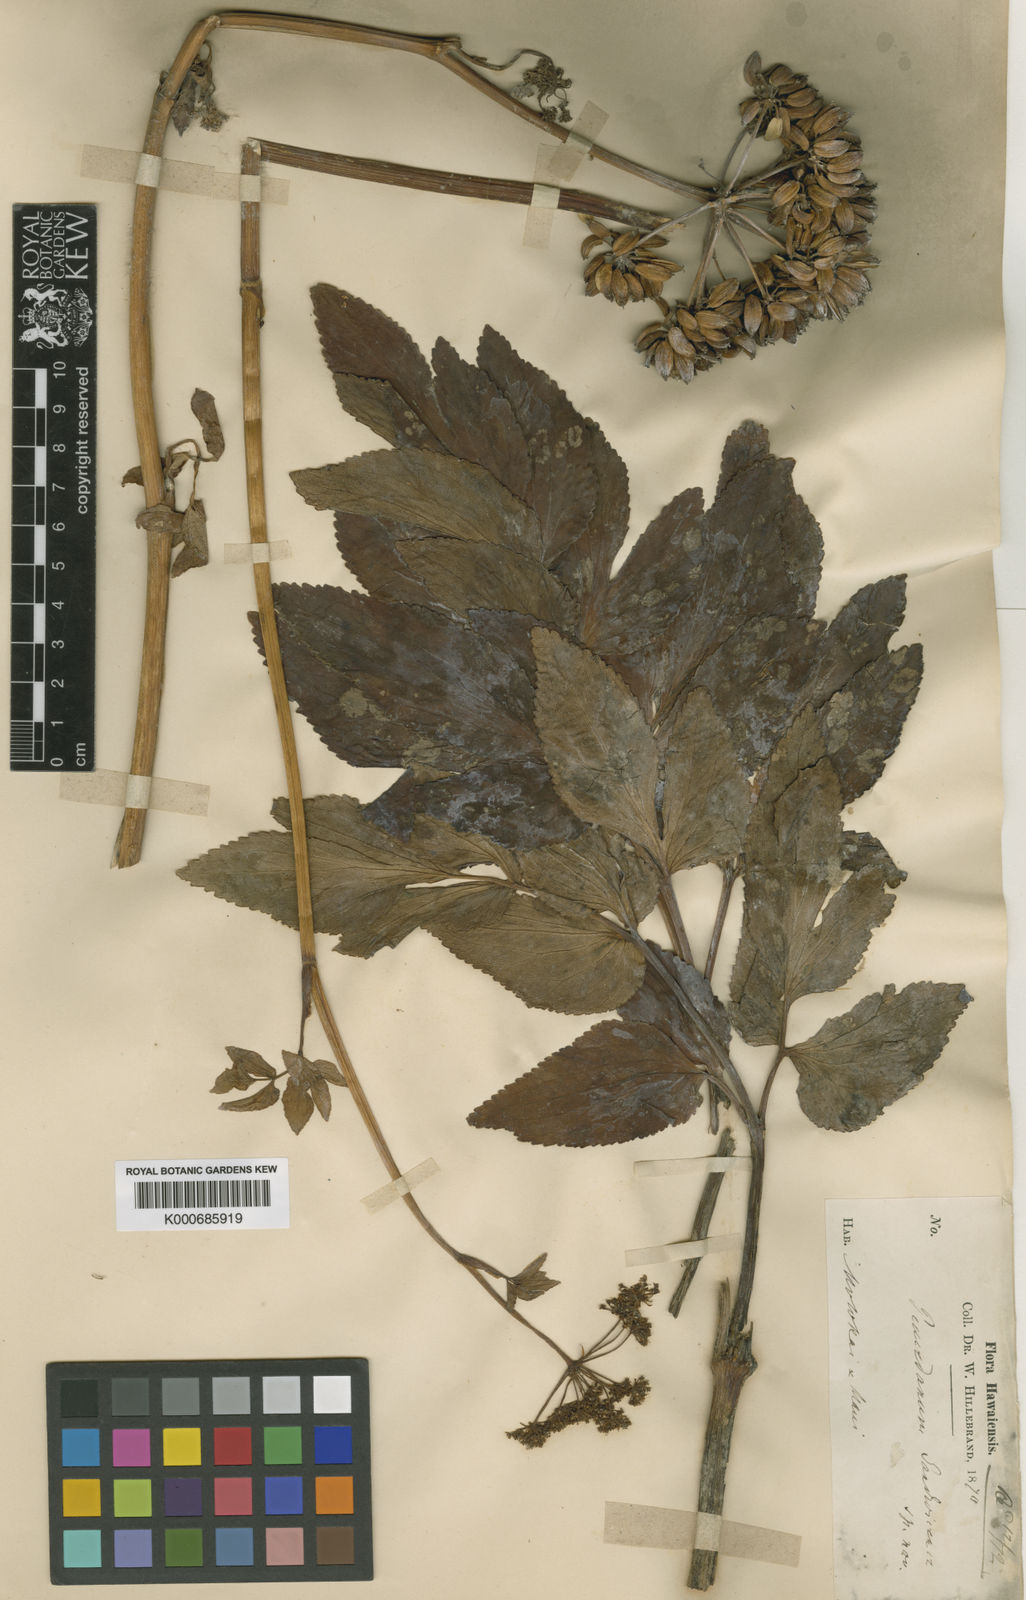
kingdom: Plantae
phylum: Tracheophyta
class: Magnoliopsida
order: Apiales
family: Apiaceae
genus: Peucedanum
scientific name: Peucedanum sandwicense
